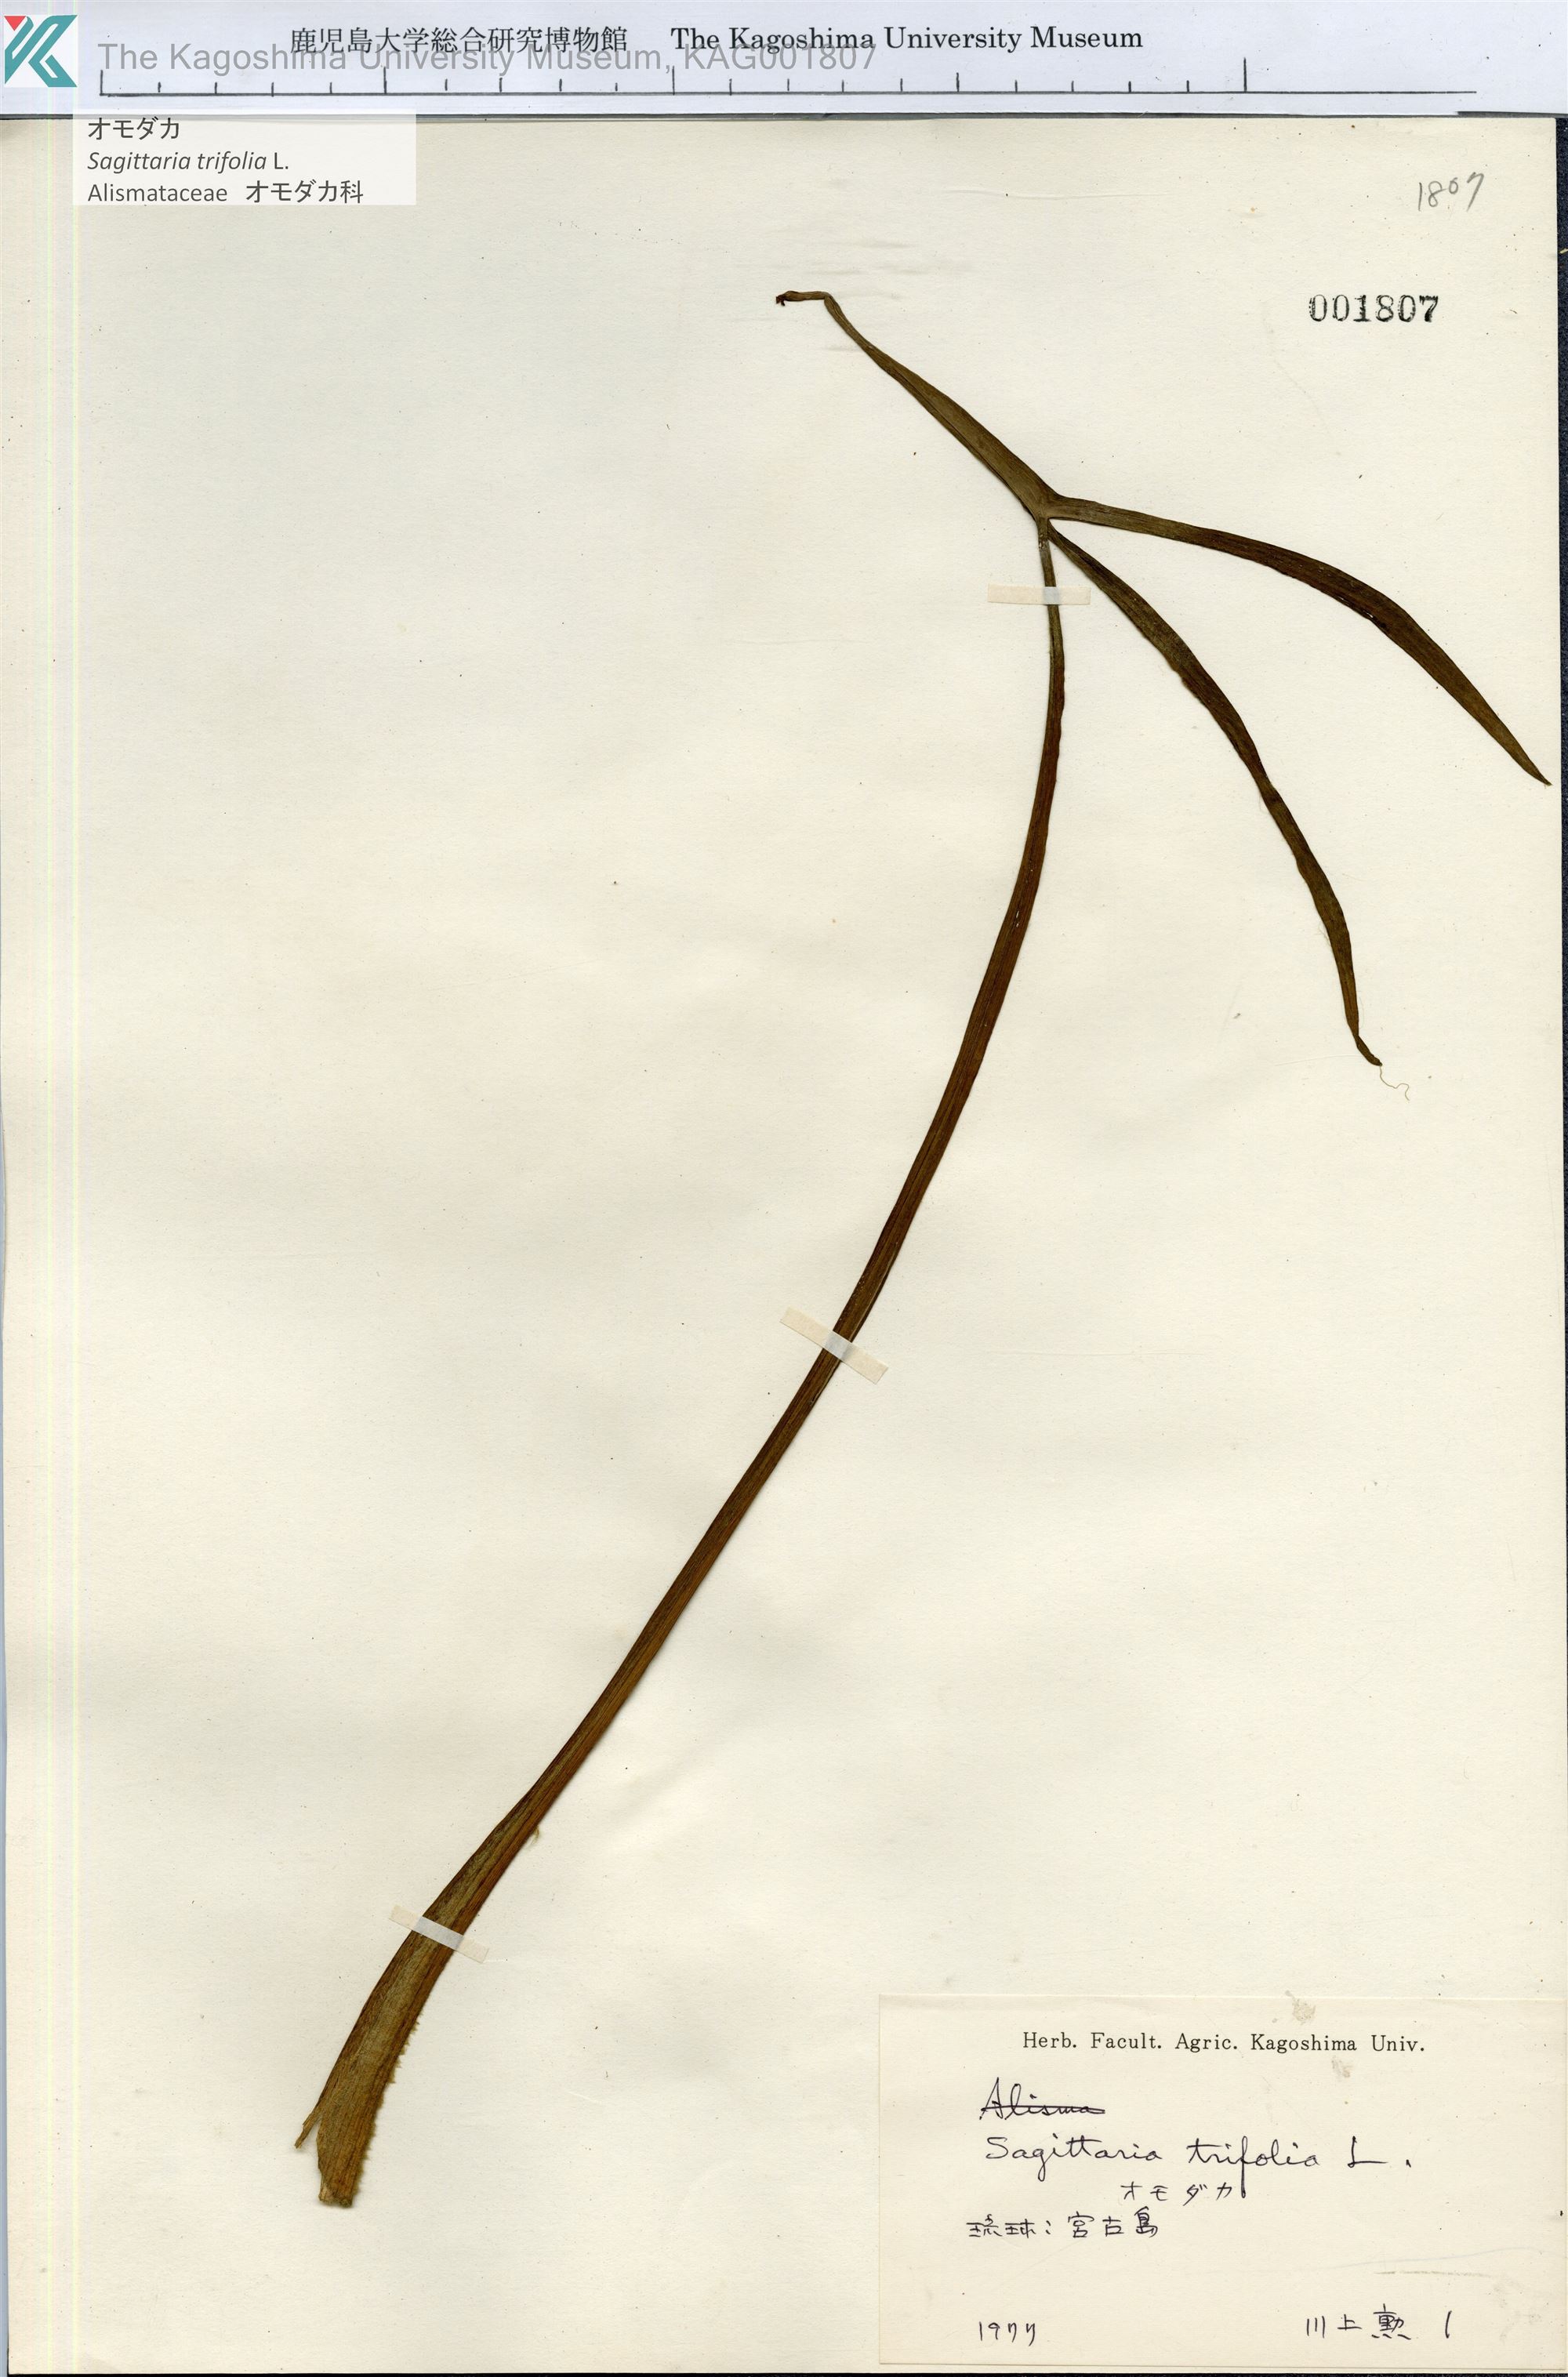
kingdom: Plantae
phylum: Tracheophyta
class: Liliopsida
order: Alismatales
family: Alismataceae
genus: Sagittaria
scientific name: Sagittaria trifolia
